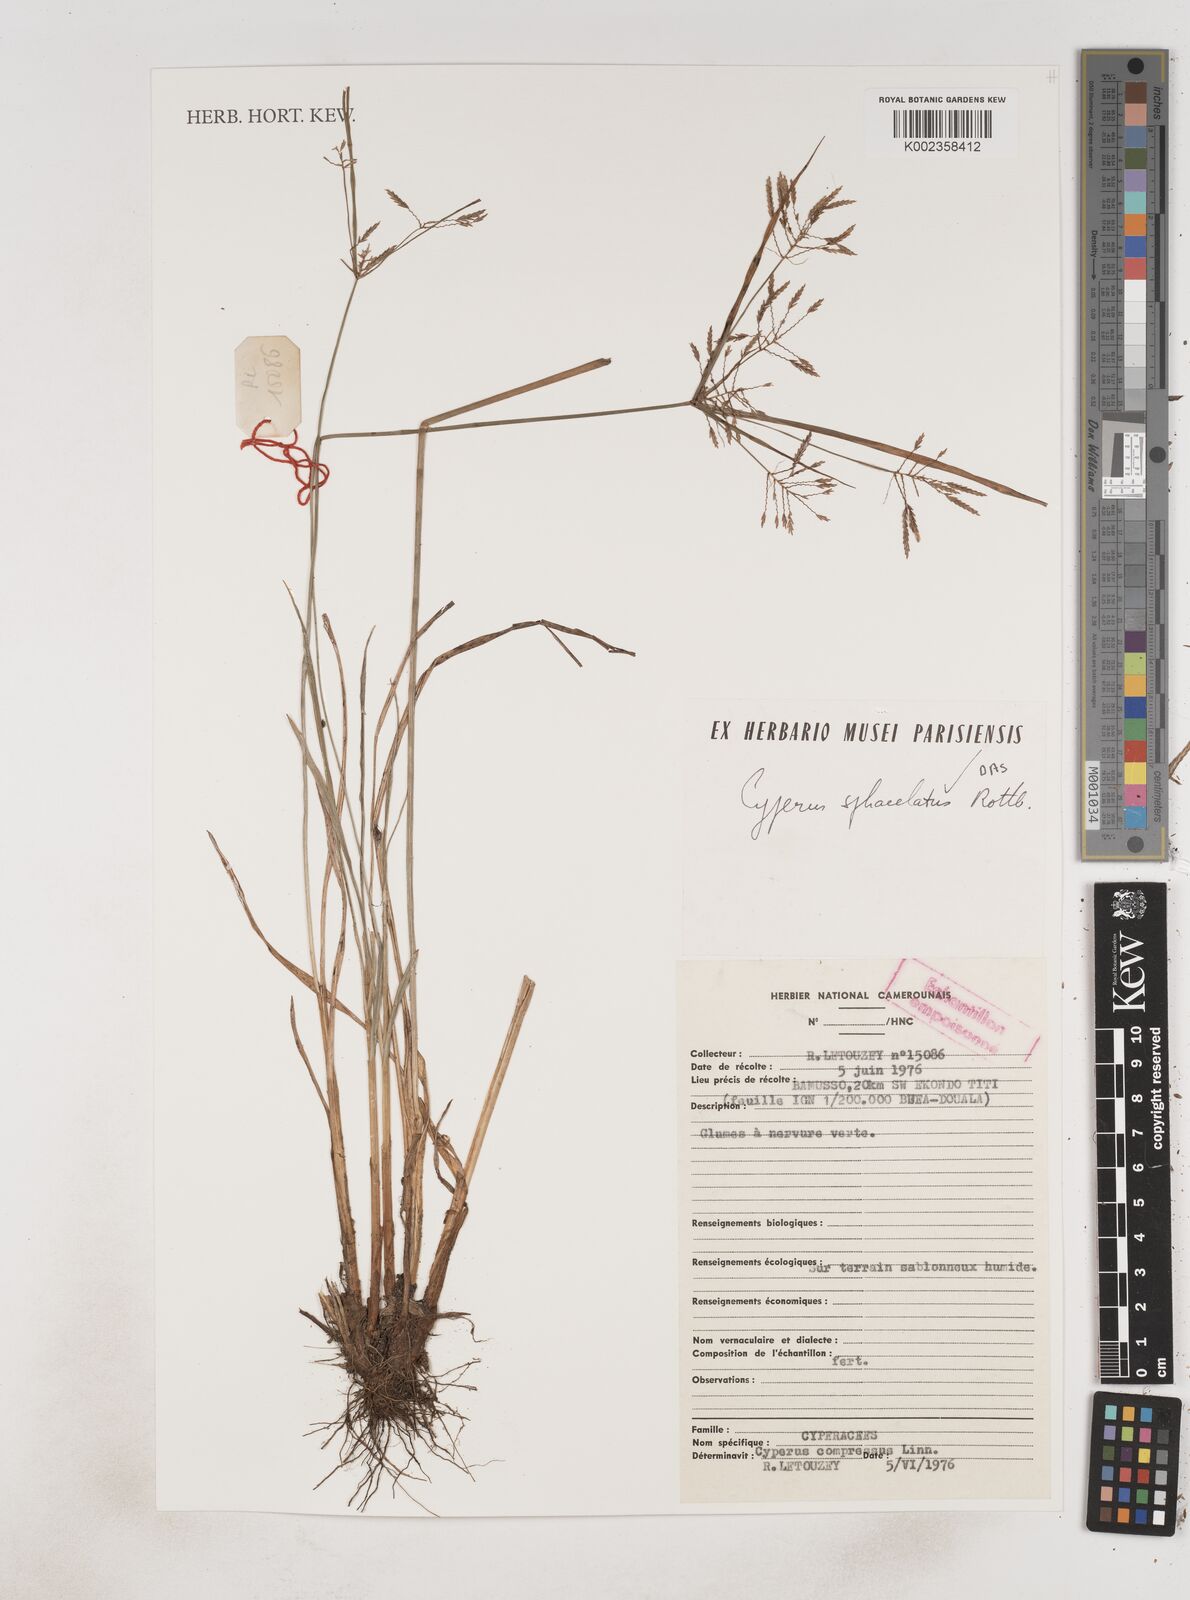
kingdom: Plantae
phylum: Tracheophyta
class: Liliopsida
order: Poales
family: Cyperaceae
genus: Cyperus
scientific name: Cyperus sphacelatus
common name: Roadside flatsedge
